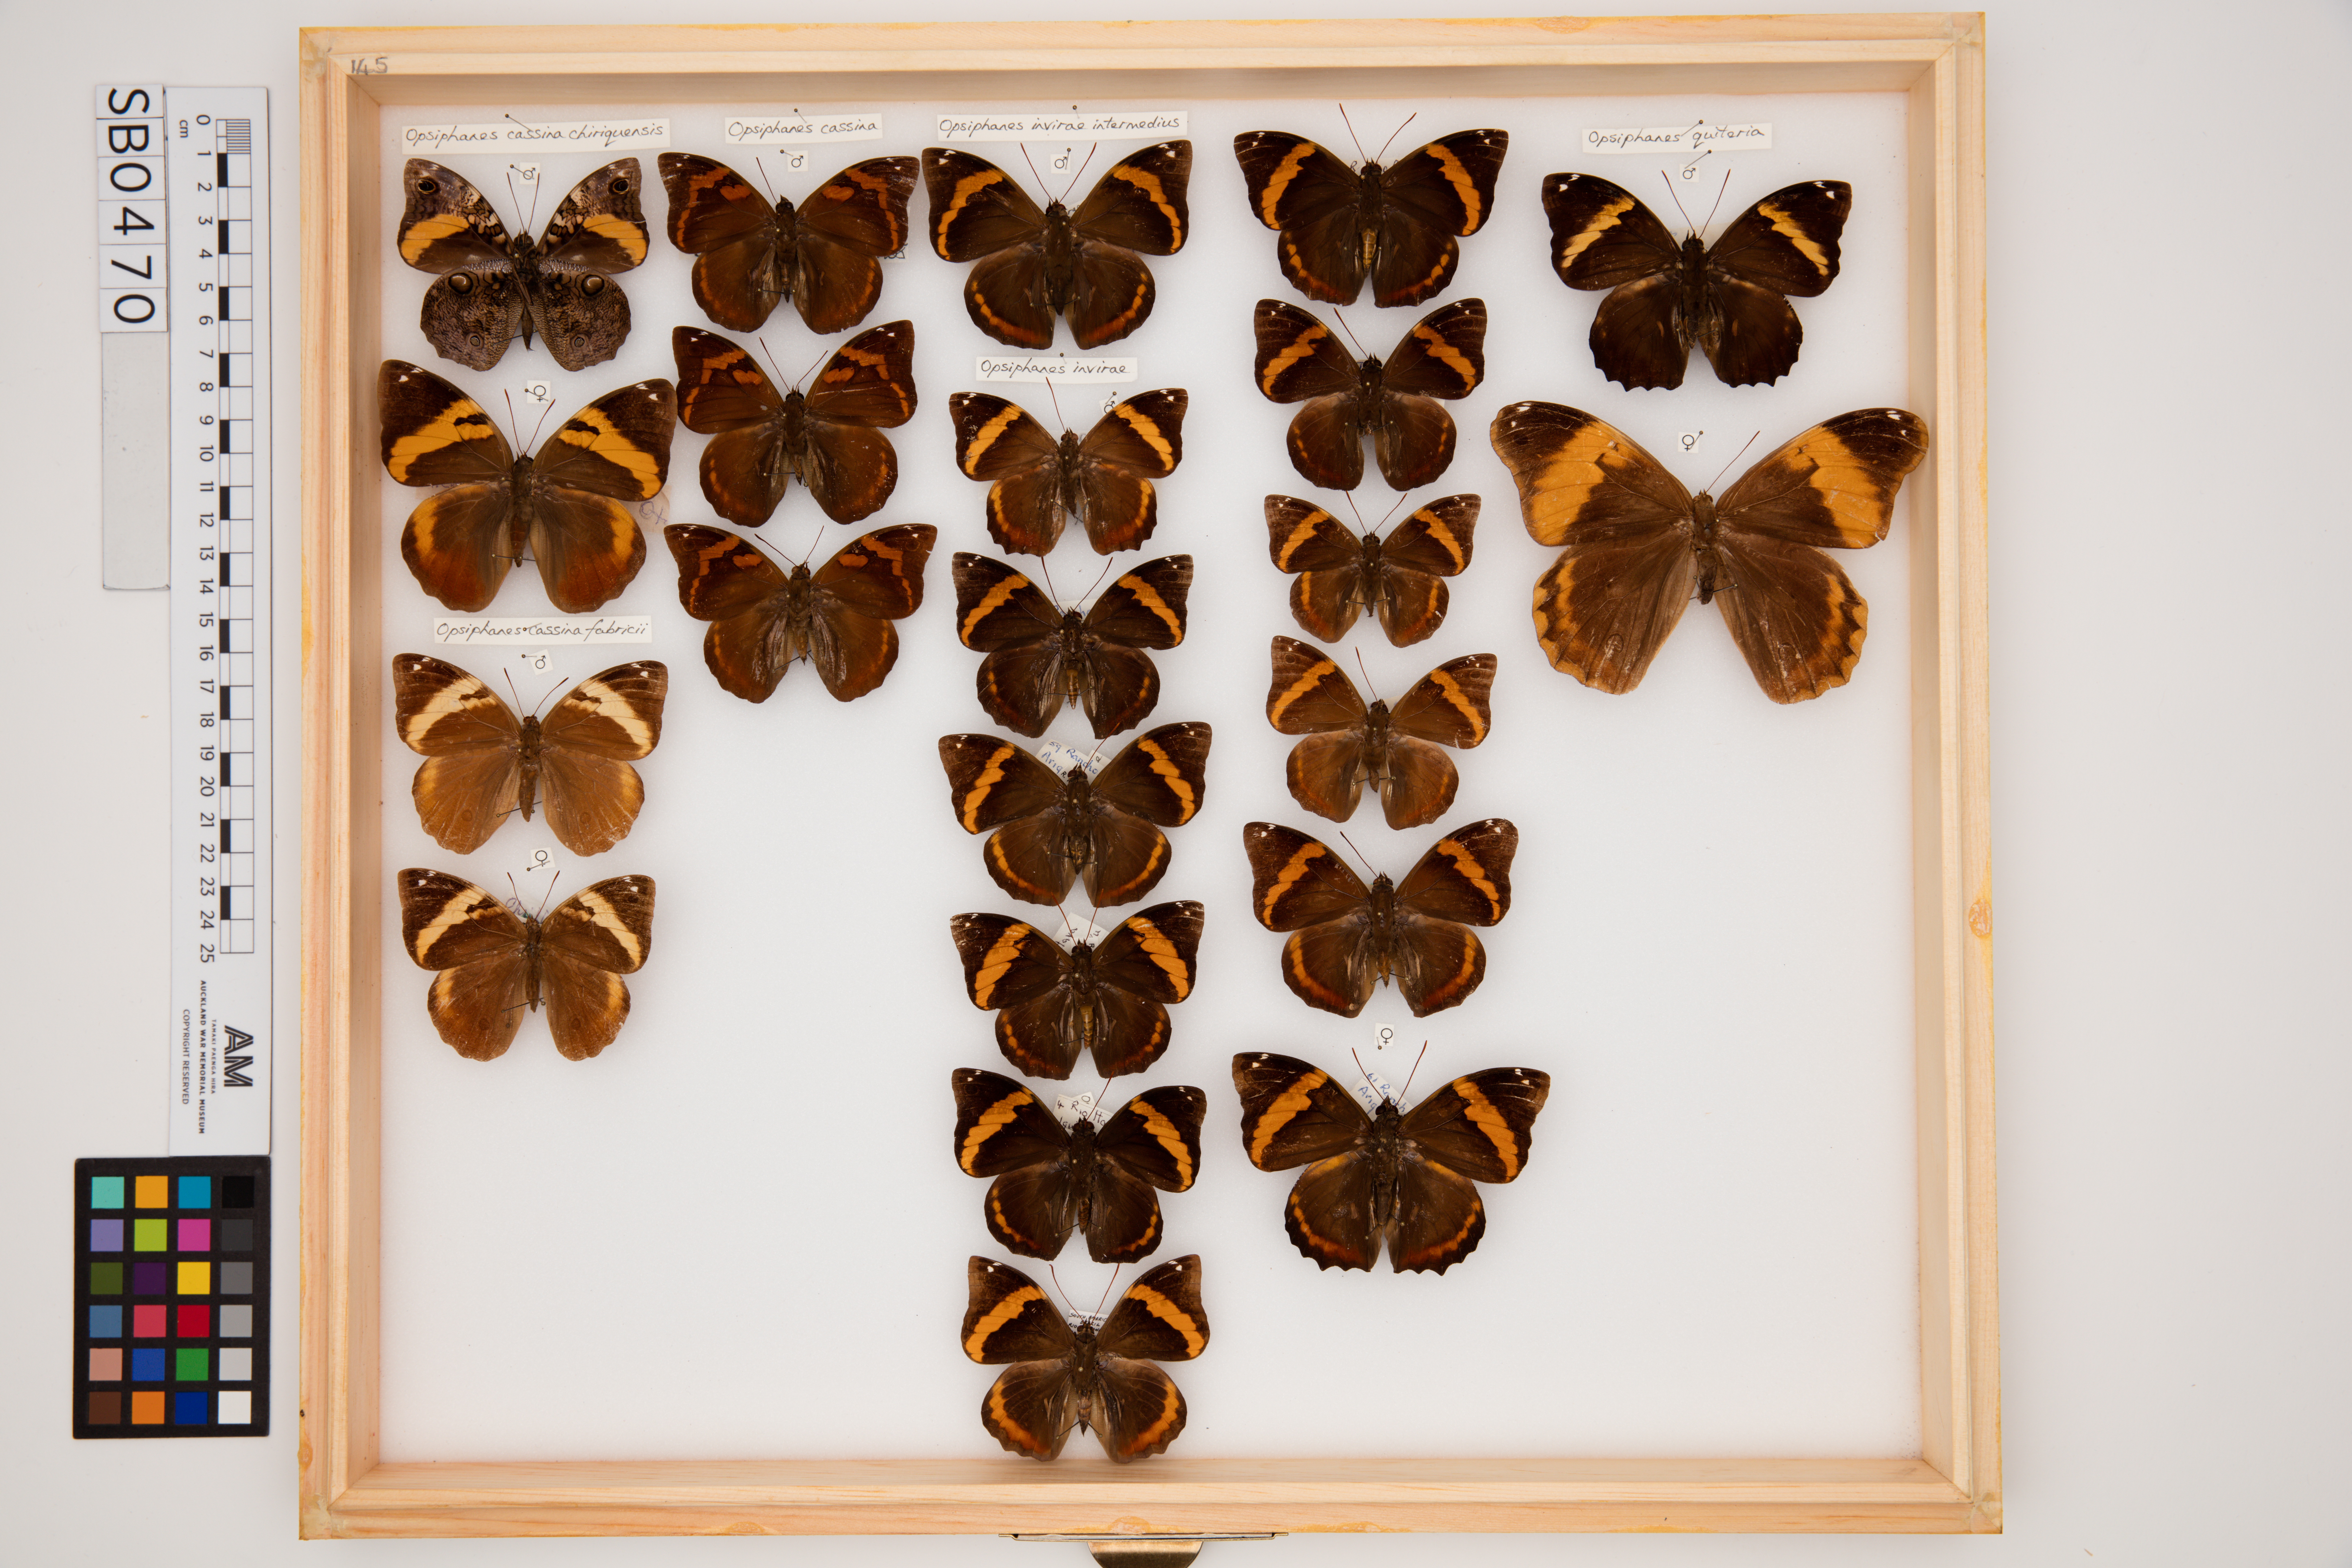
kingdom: Animalia
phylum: Arthropoda
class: Insecta
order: Lepidoptera
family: Nymphalidae
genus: Opsiphanes
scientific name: Opsiphanes invirae
